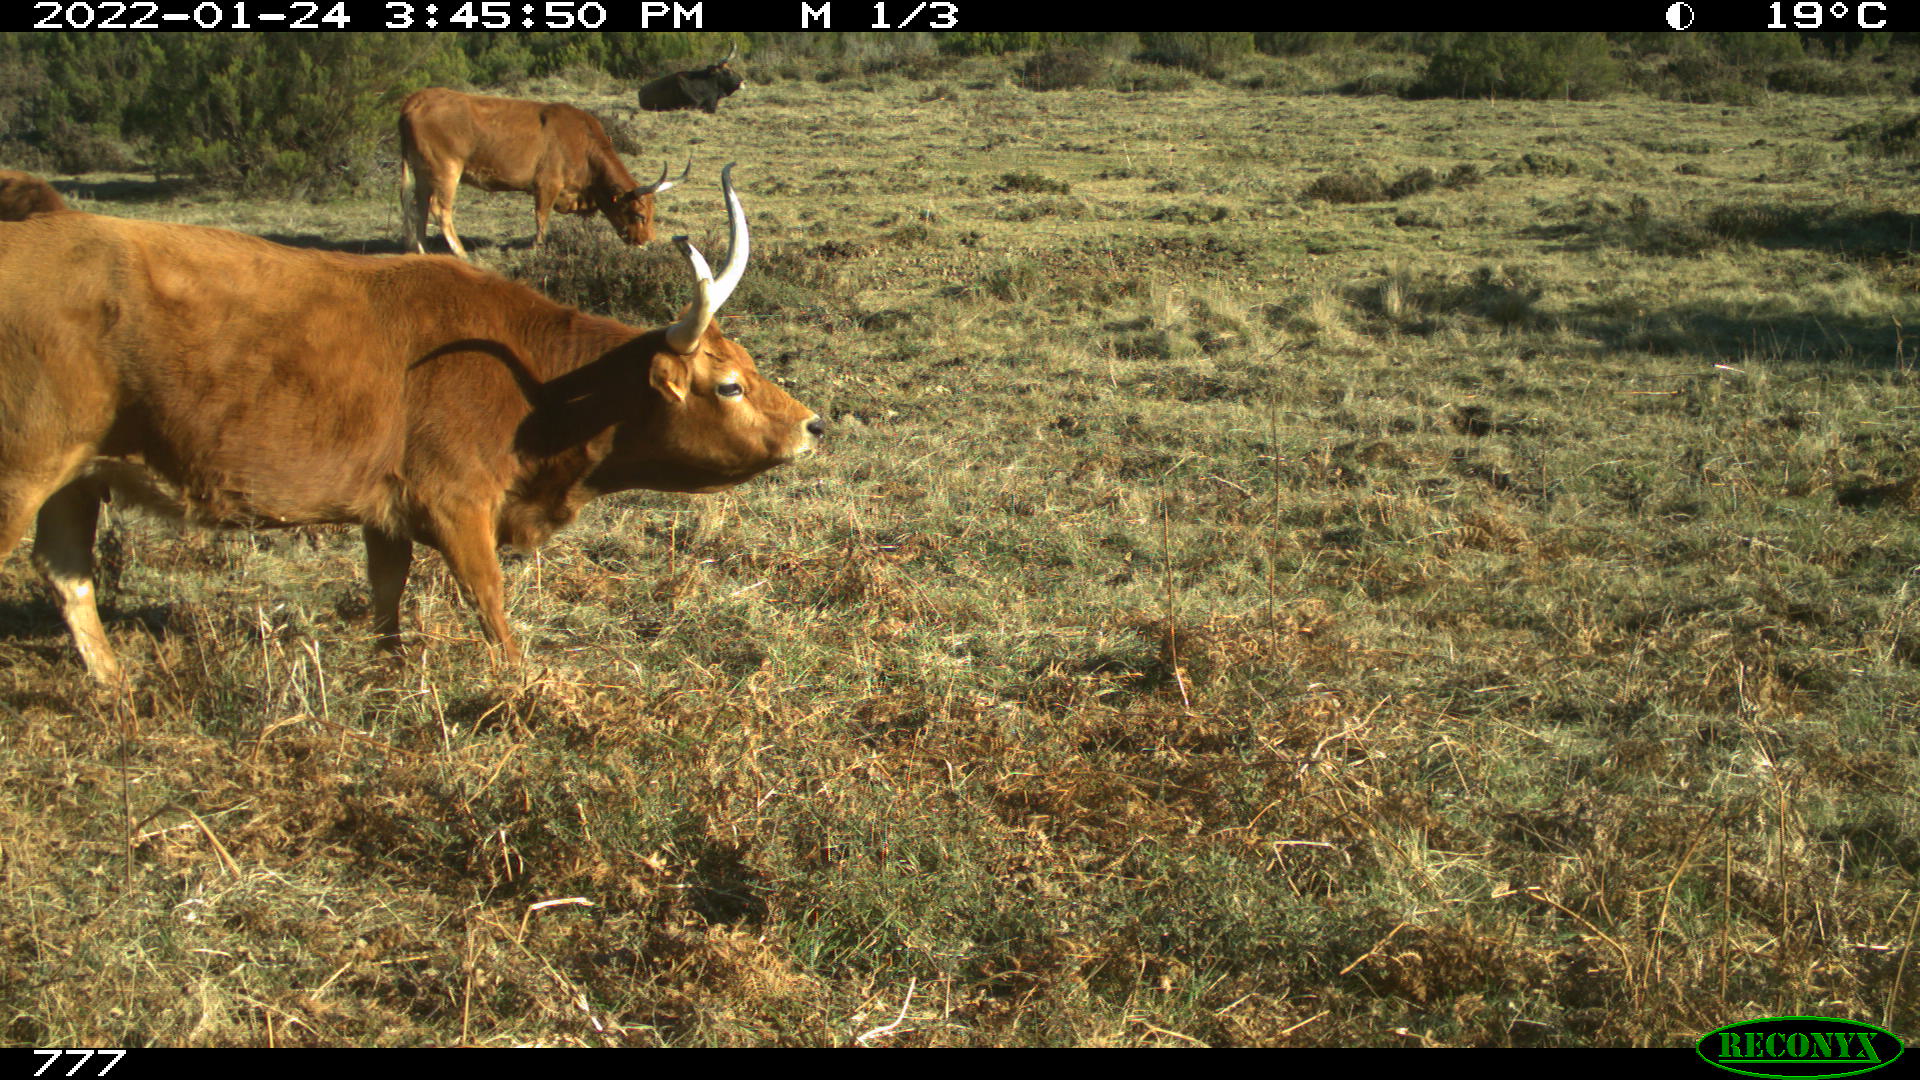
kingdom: Animalia
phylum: Chordata
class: Mammalia
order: Artiodactyla
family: Bovidae
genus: Bos
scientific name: Bos taurus
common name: Domesticated cattle
